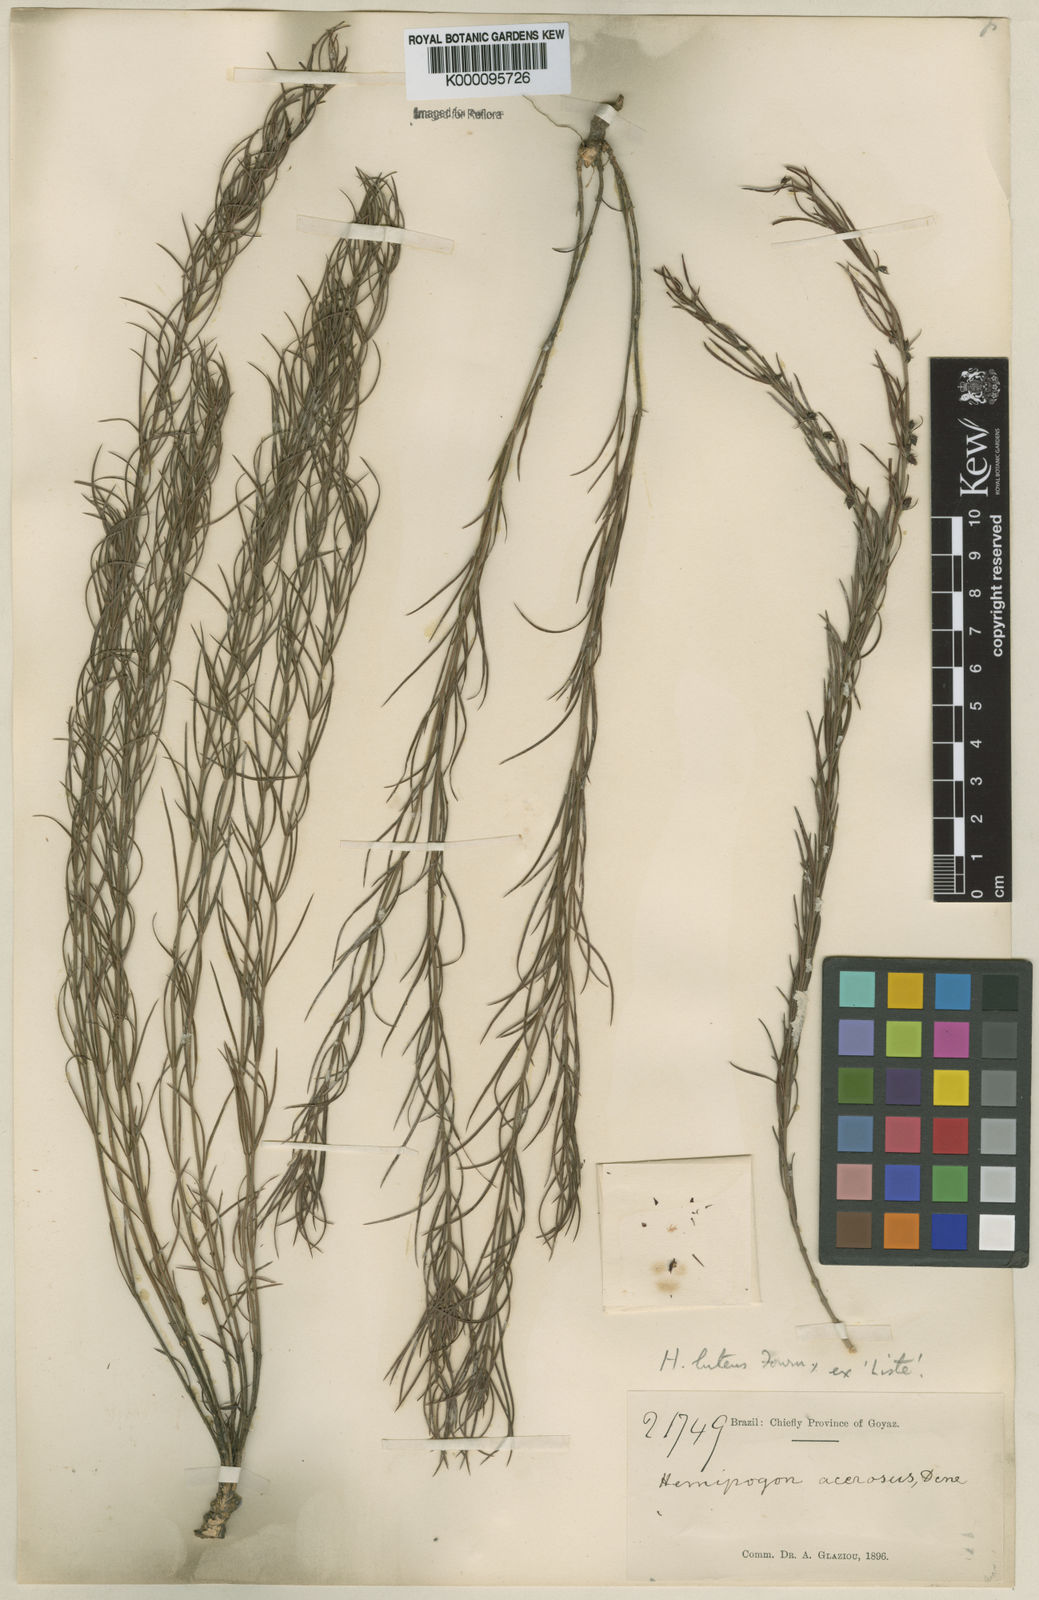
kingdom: Plantae
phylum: Tracheophyta
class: Magnoliopsida
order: Gentianales
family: Apocynaceae
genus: Hemipogon
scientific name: Hemipogon acerosus
